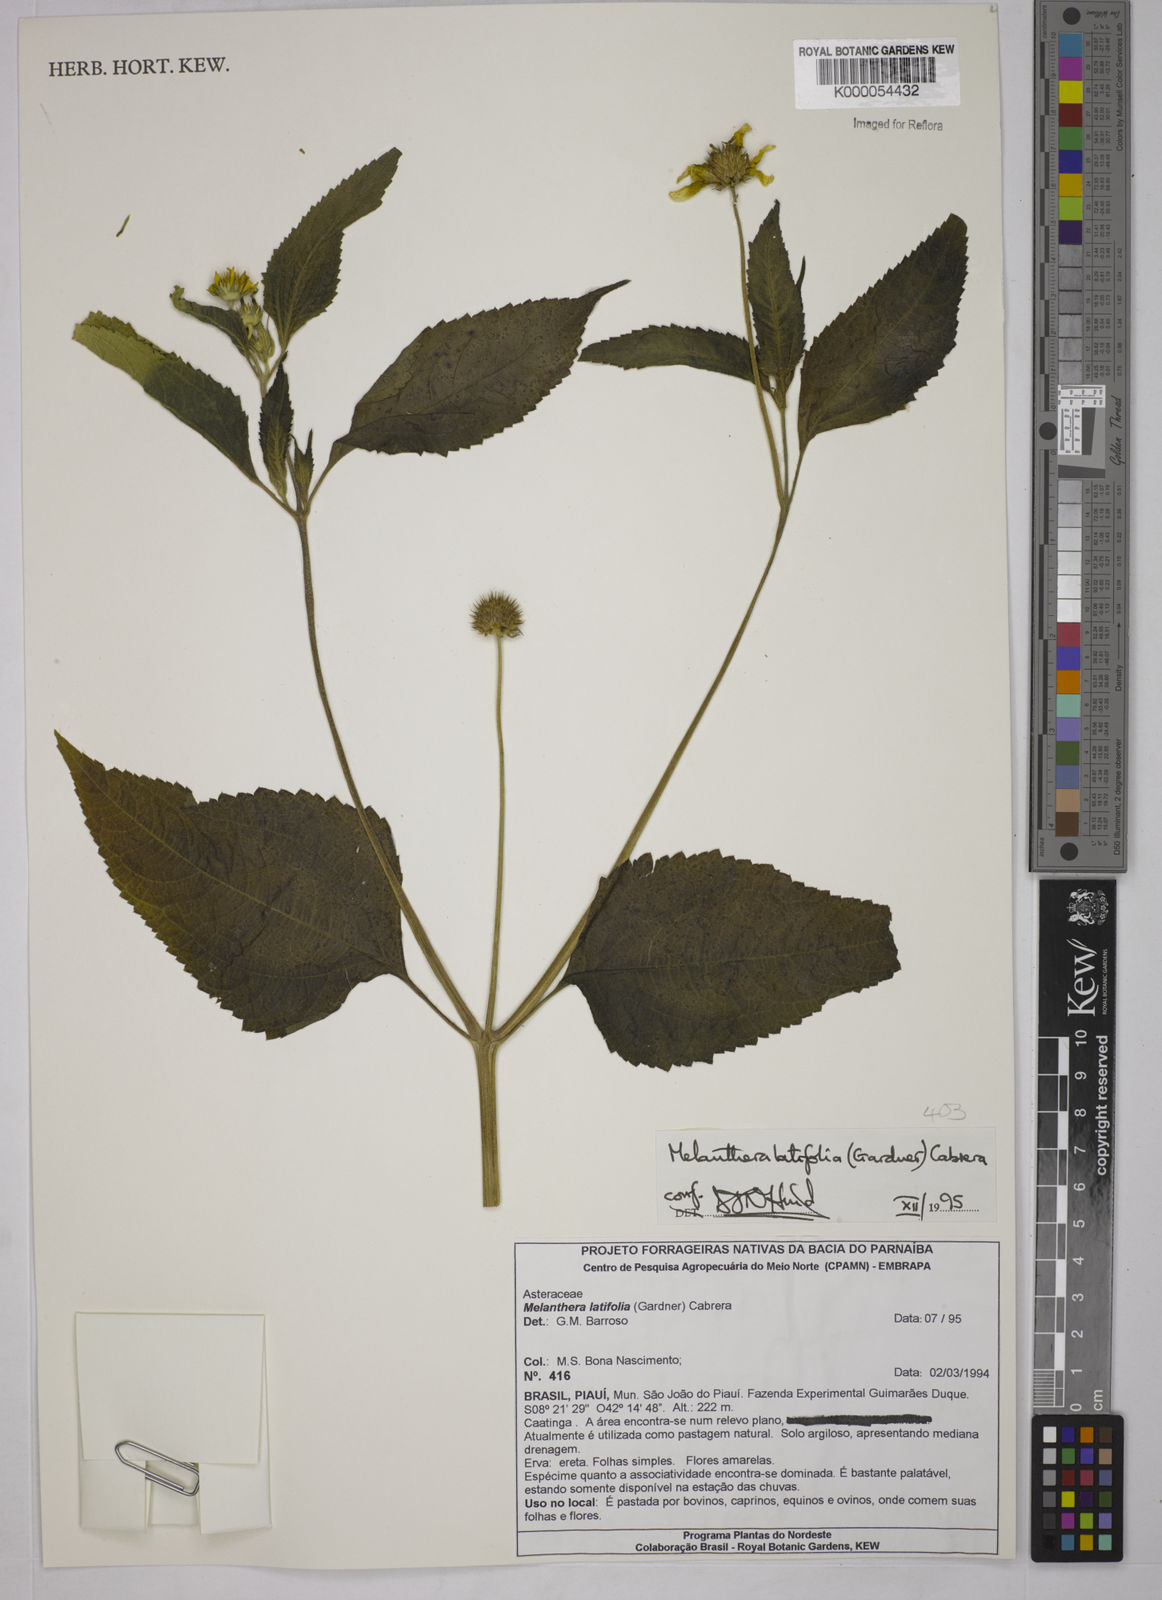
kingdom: Plantae
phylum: Tracheophyta
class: Magnoliopsida
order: Asterales
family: Asteraceae
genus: Echinocephalum
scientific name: Echinocephalum latifolium
